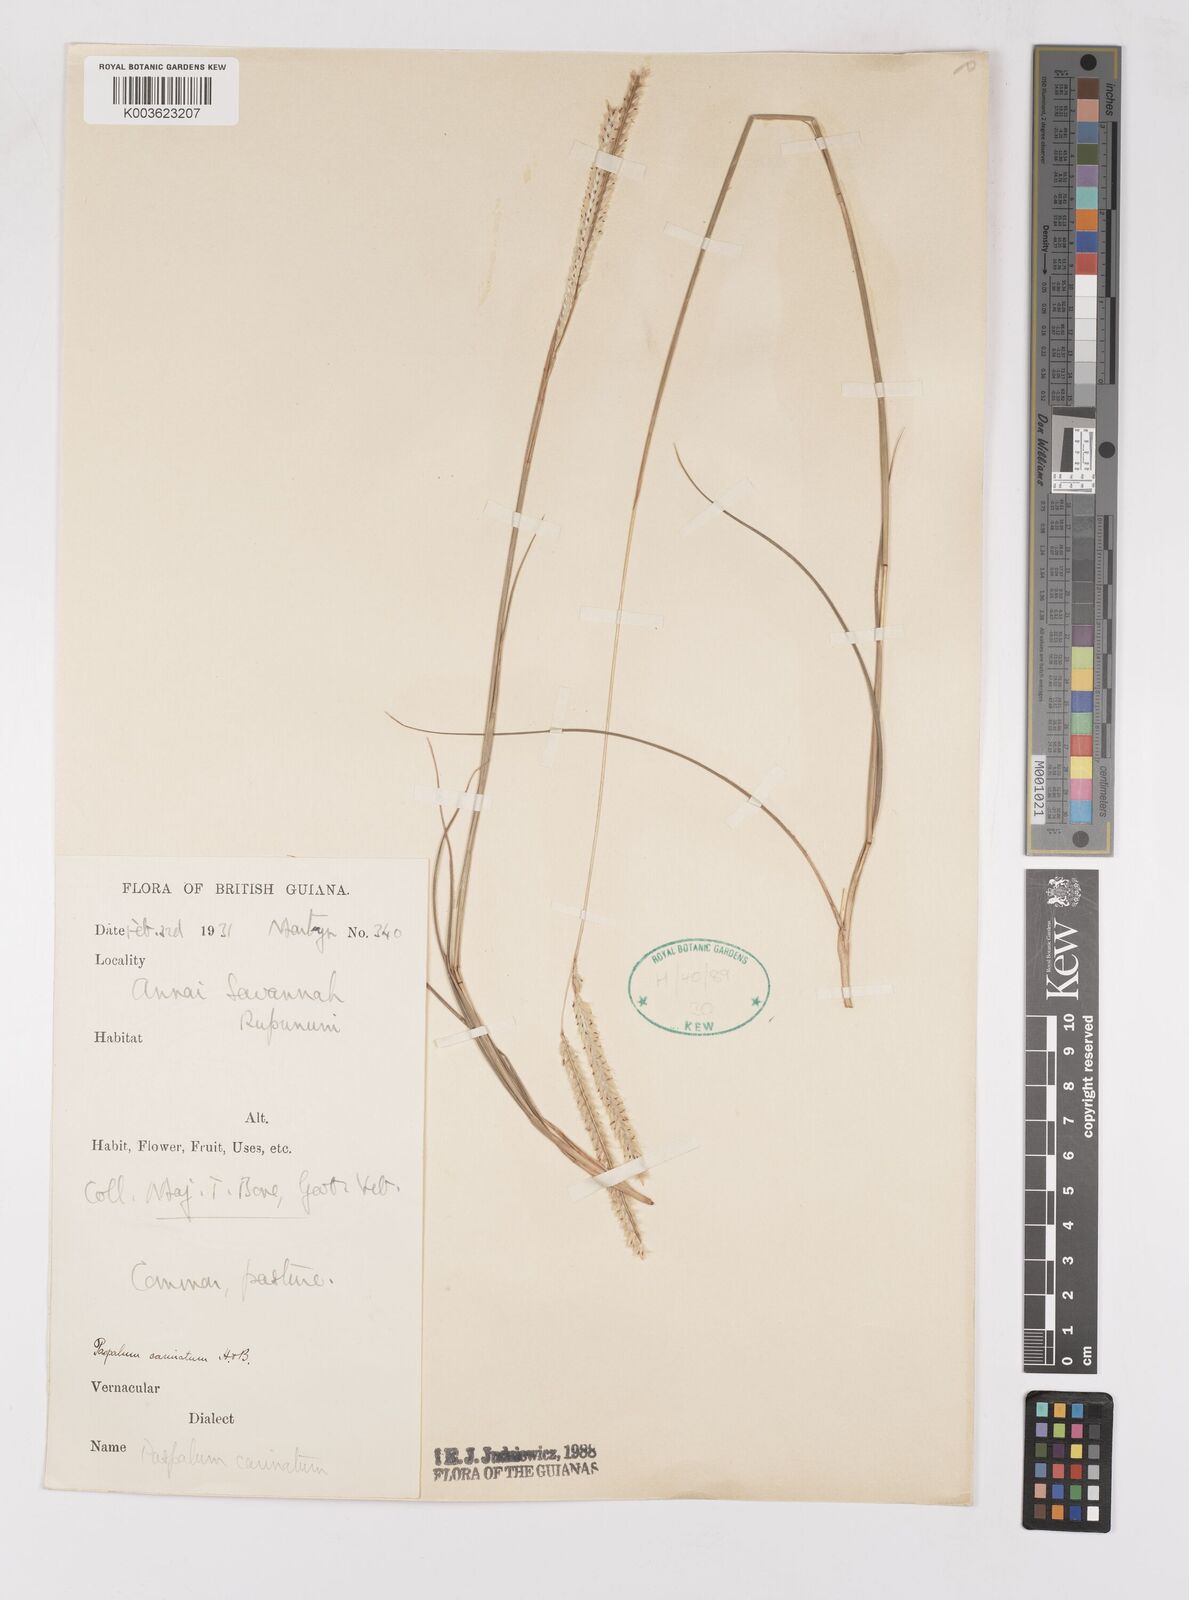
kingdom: Plantae
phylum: Tracheophyta
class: Liliopsida
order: Poales
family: Poaceae
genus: Paspalum
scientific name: Paspalum carinatum
